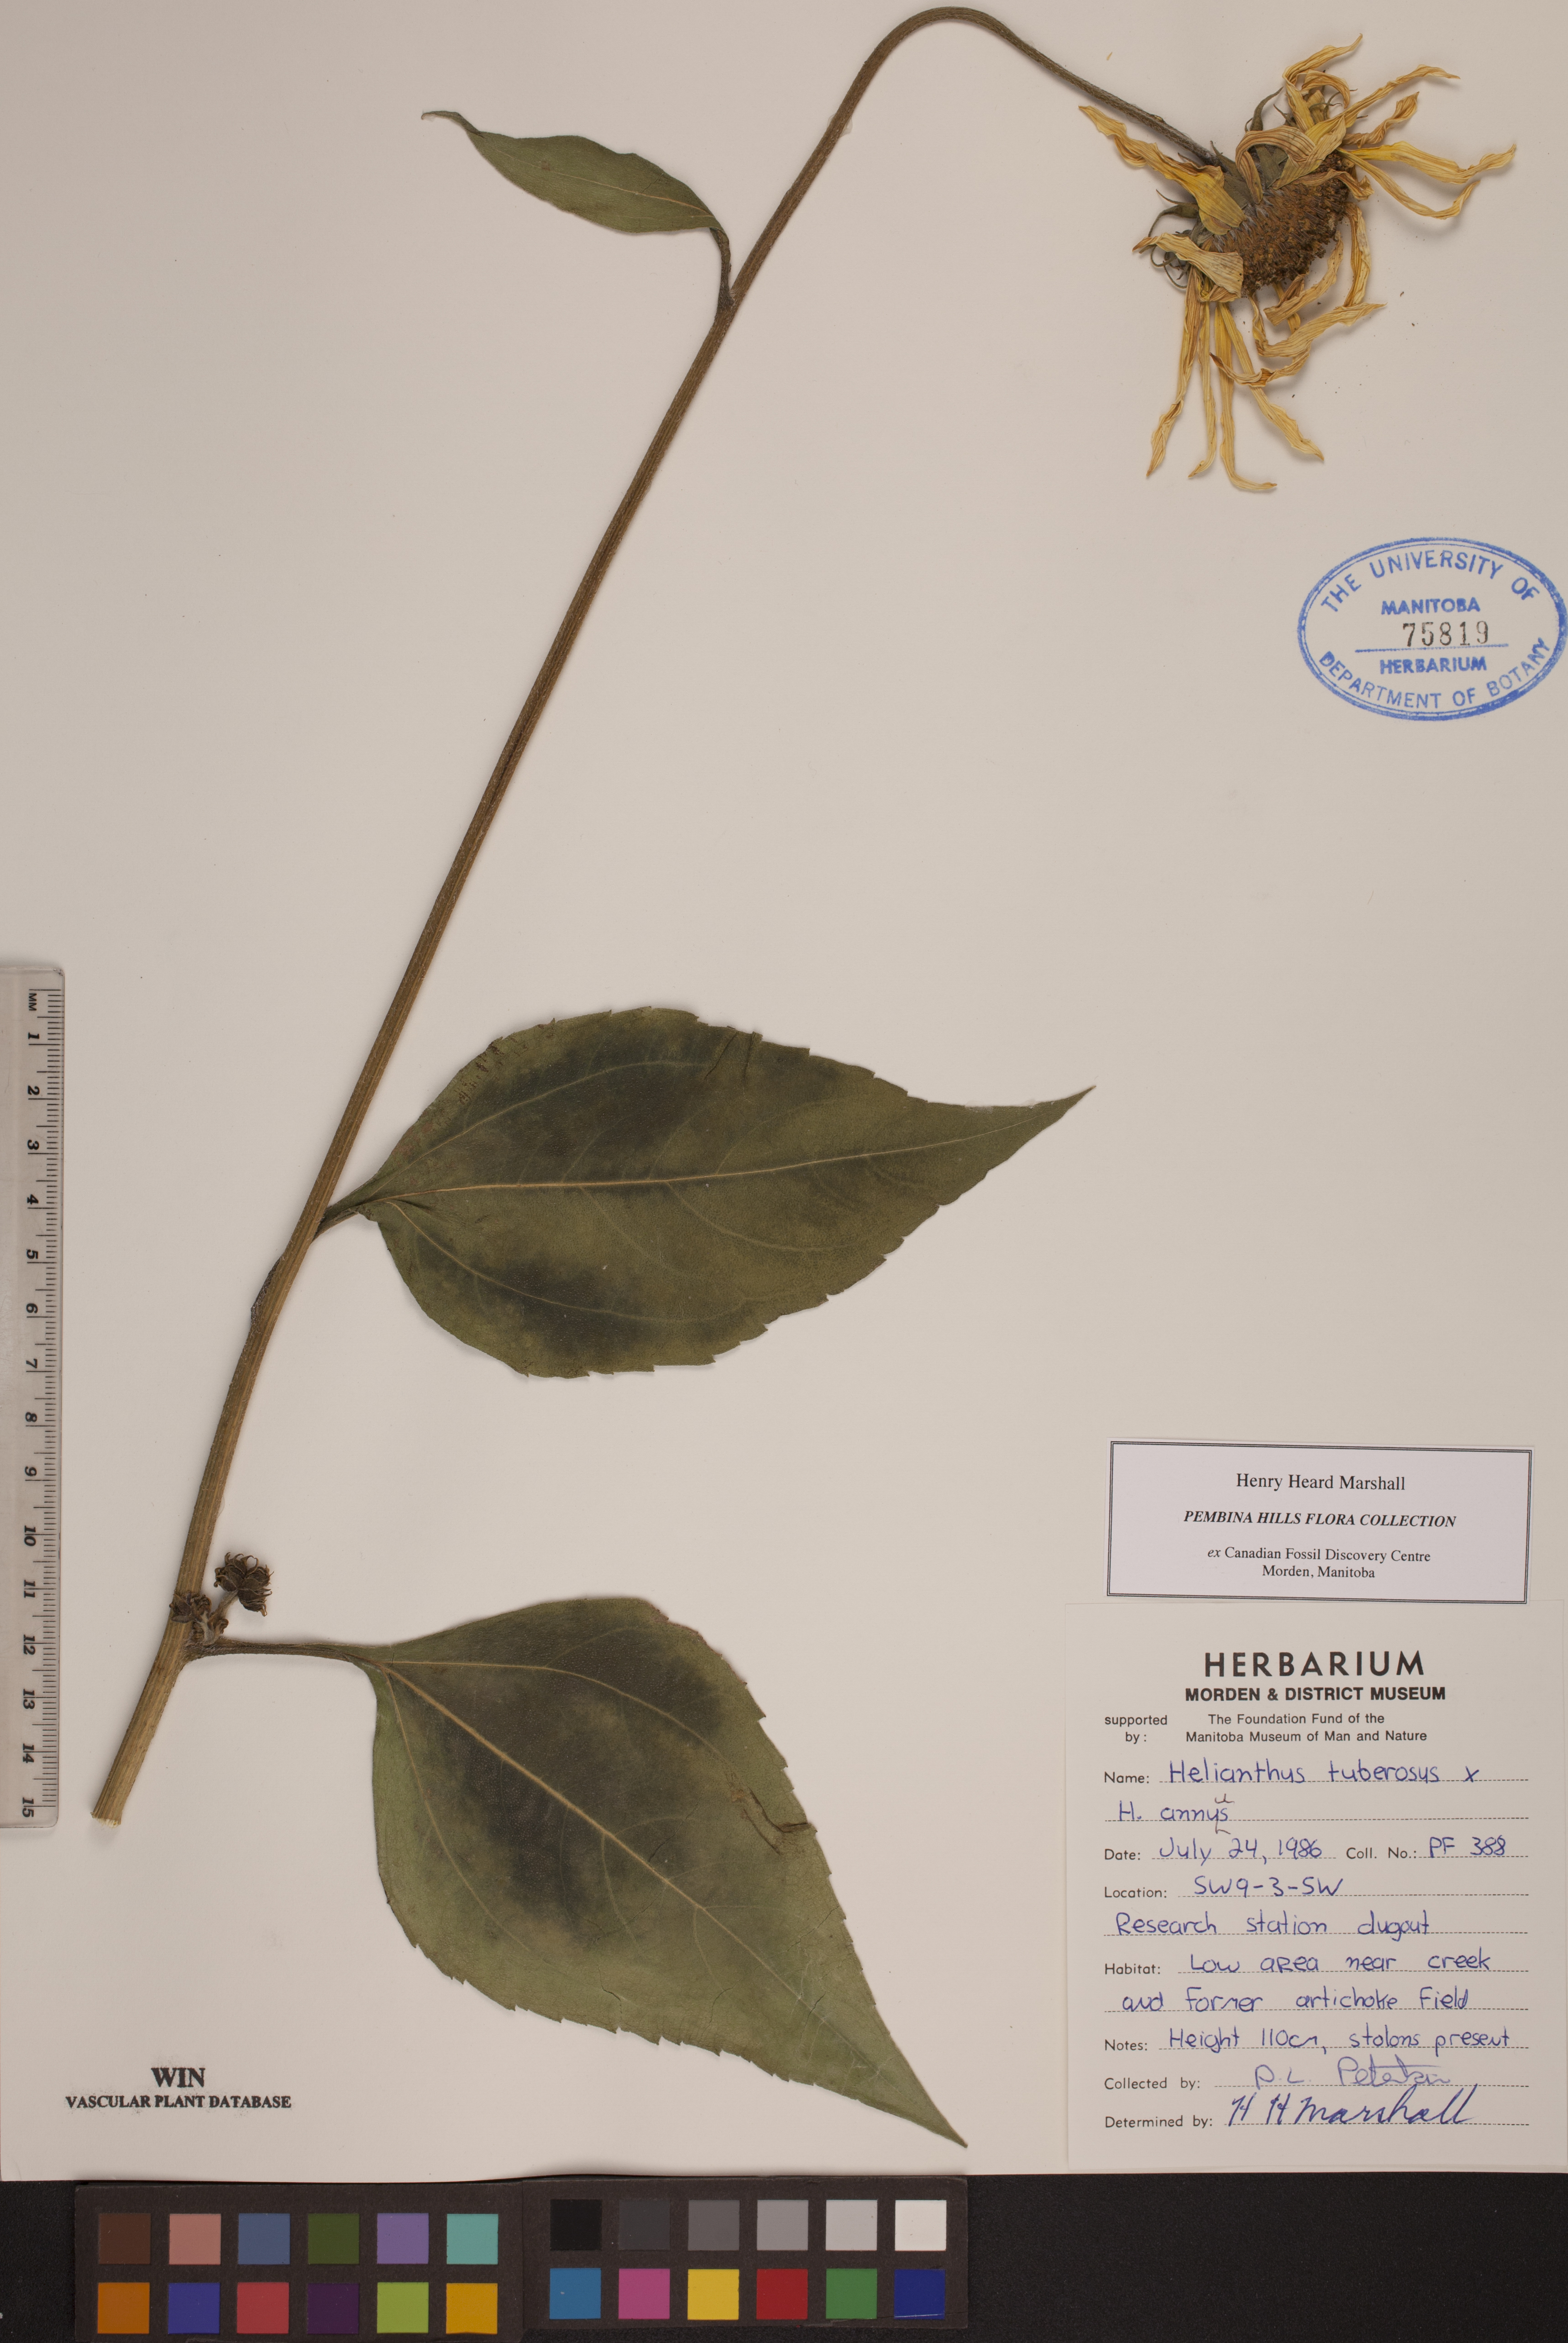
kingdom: Plantae
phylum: Tracheophyta
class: Magnoliopsida
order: Asterales
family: Asteraceae
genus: Helianthus
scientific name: Helianthus tuberosus
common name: Jerusalem artichoke
